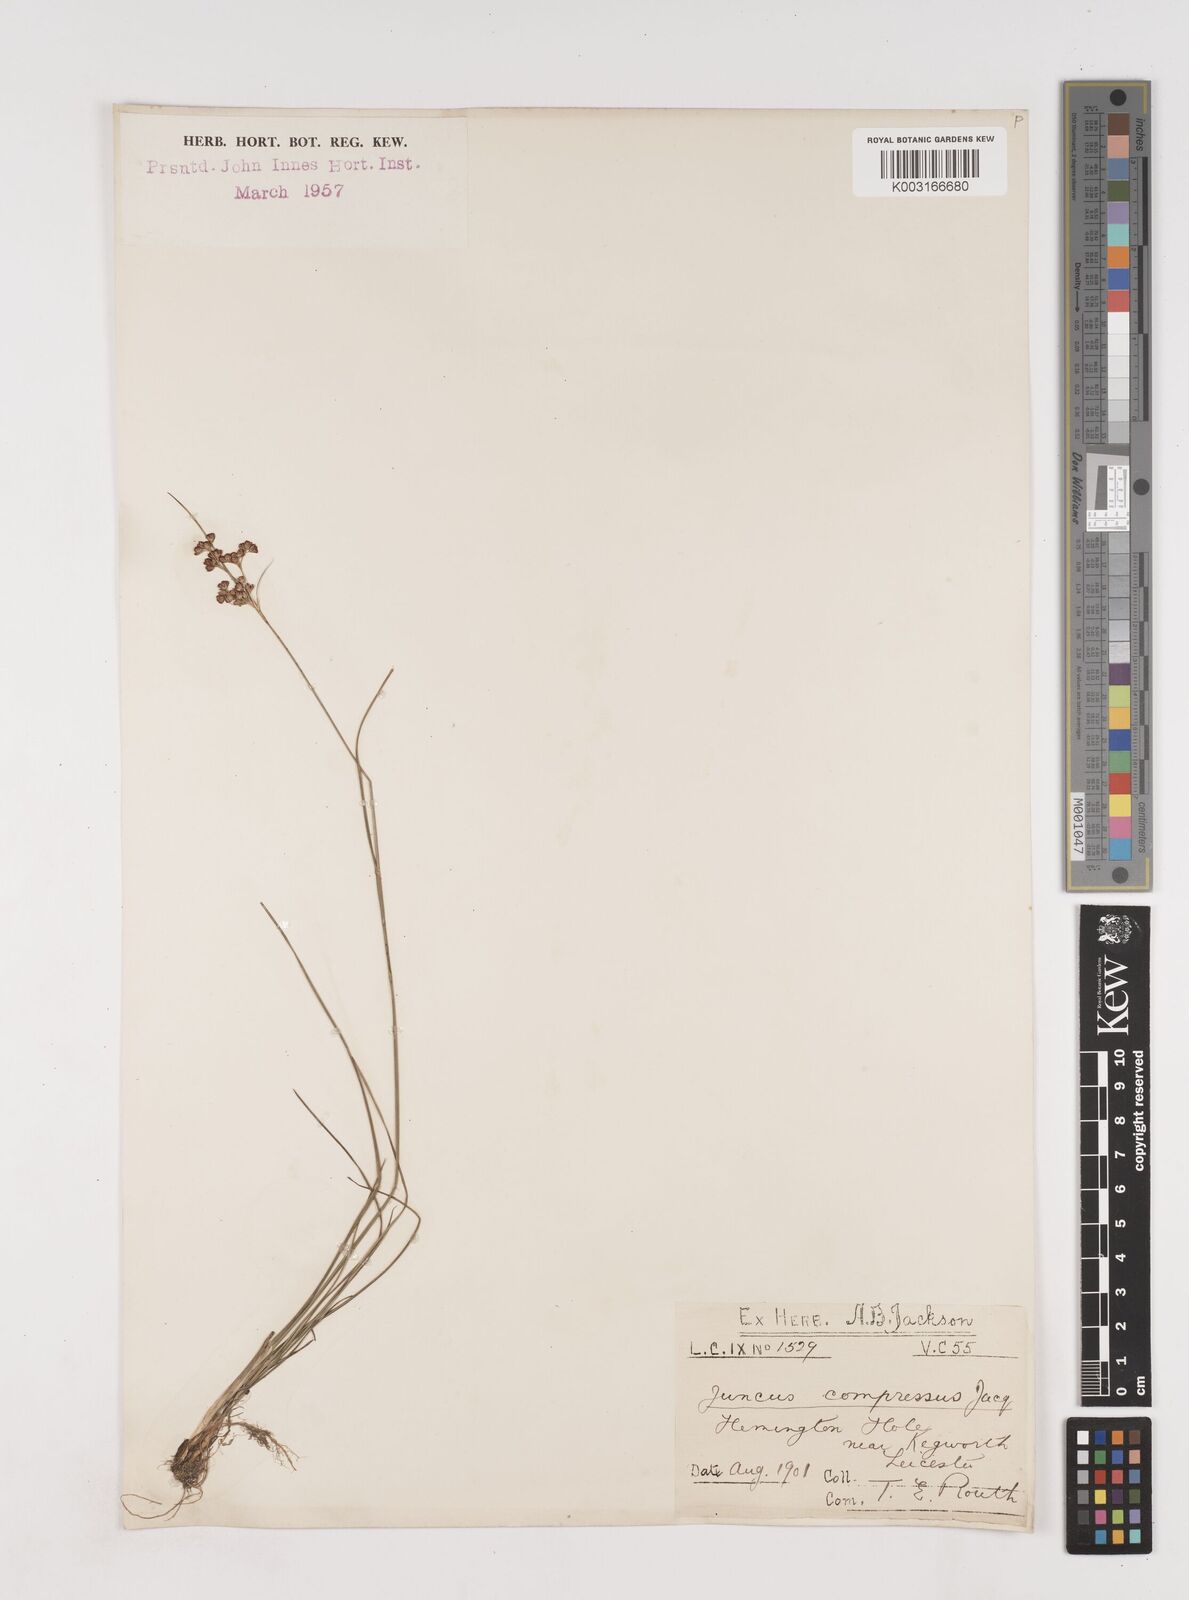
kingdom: Plantae
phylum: Tracheophyta
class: Liliopsida
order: Poales
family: Juncaceae
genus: Juncus
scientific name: Juncus compressus
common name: Round-fruited rush
